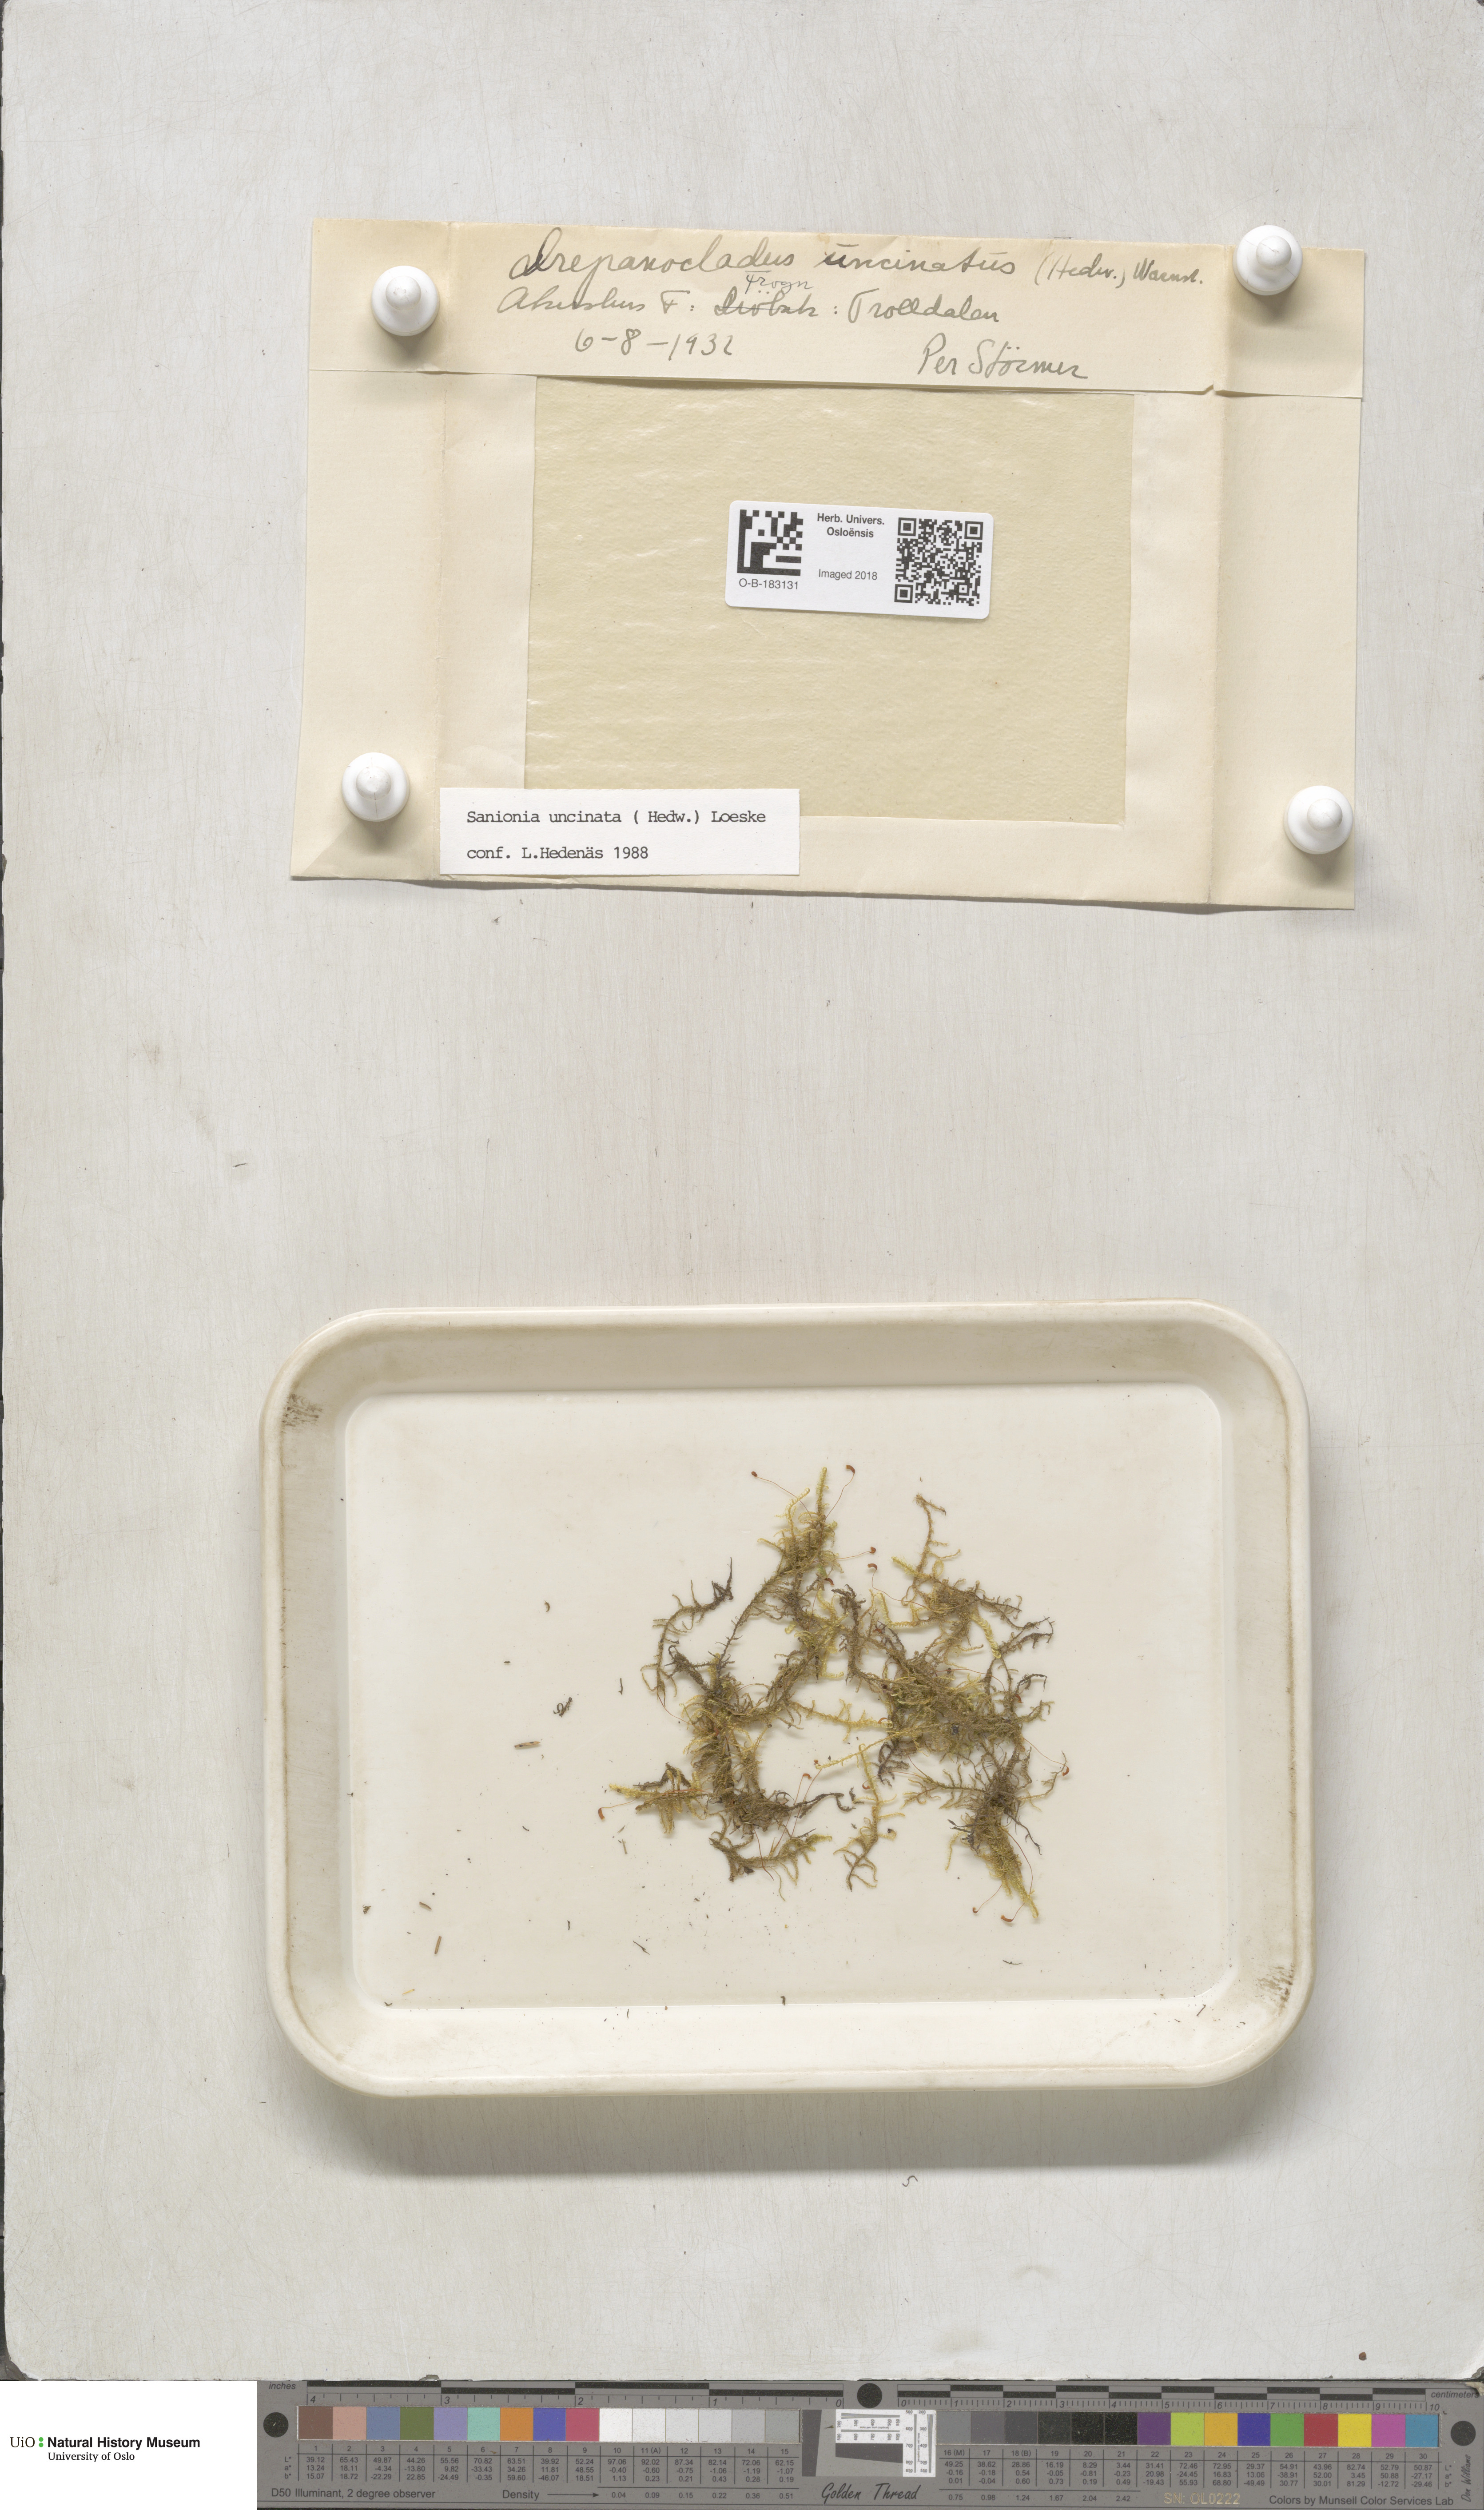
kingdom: Plantae
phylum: Bryophyta
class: Bryopsida
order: Hypnales
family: Scorpidiaceae
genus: Sanionia
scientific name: Sanionia uncinata
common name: Sickle moss
